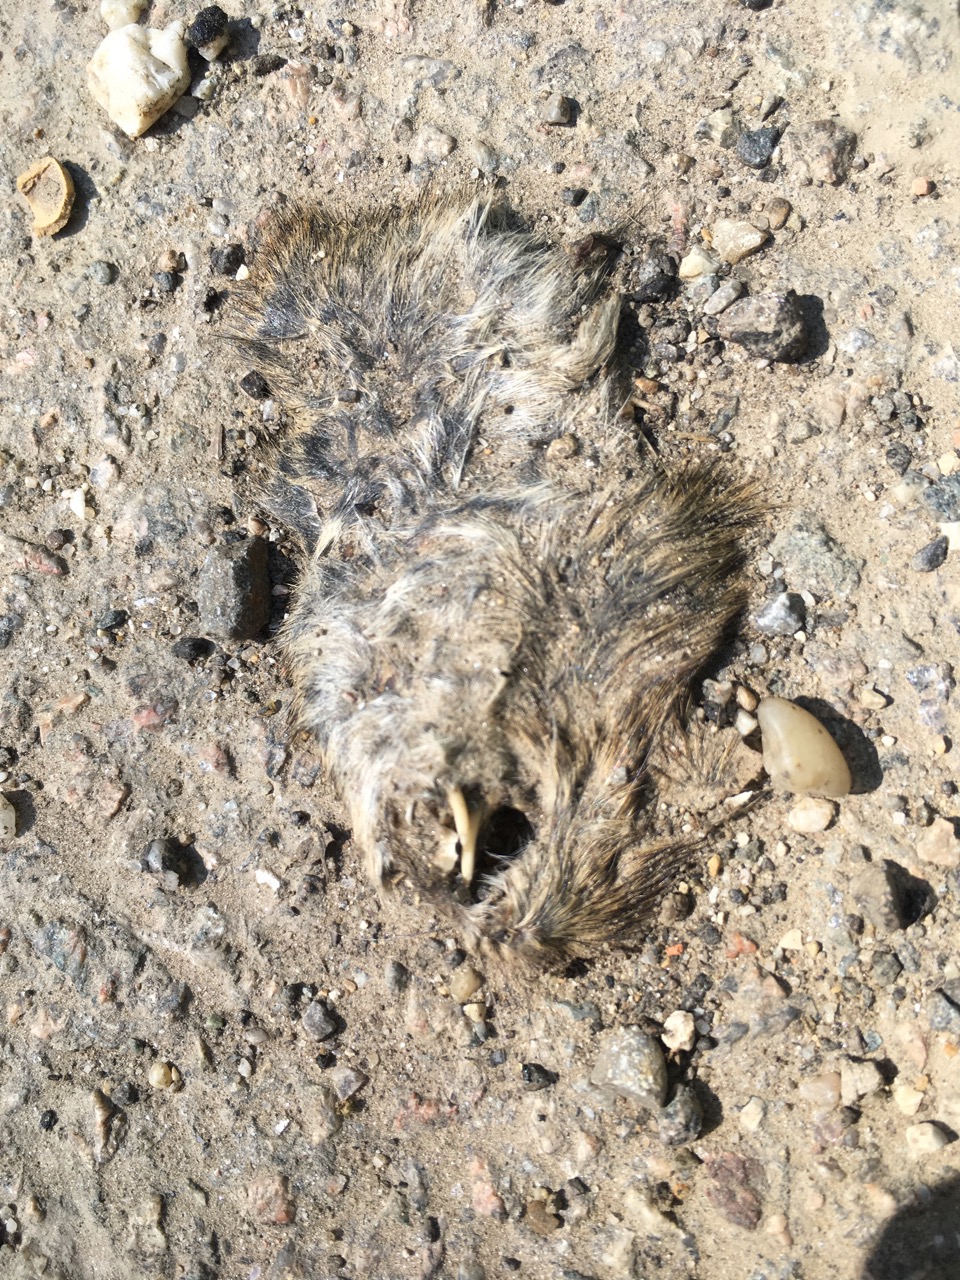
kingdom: Animalia
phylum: Chordata
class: Mammalia
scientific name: Mammalia
